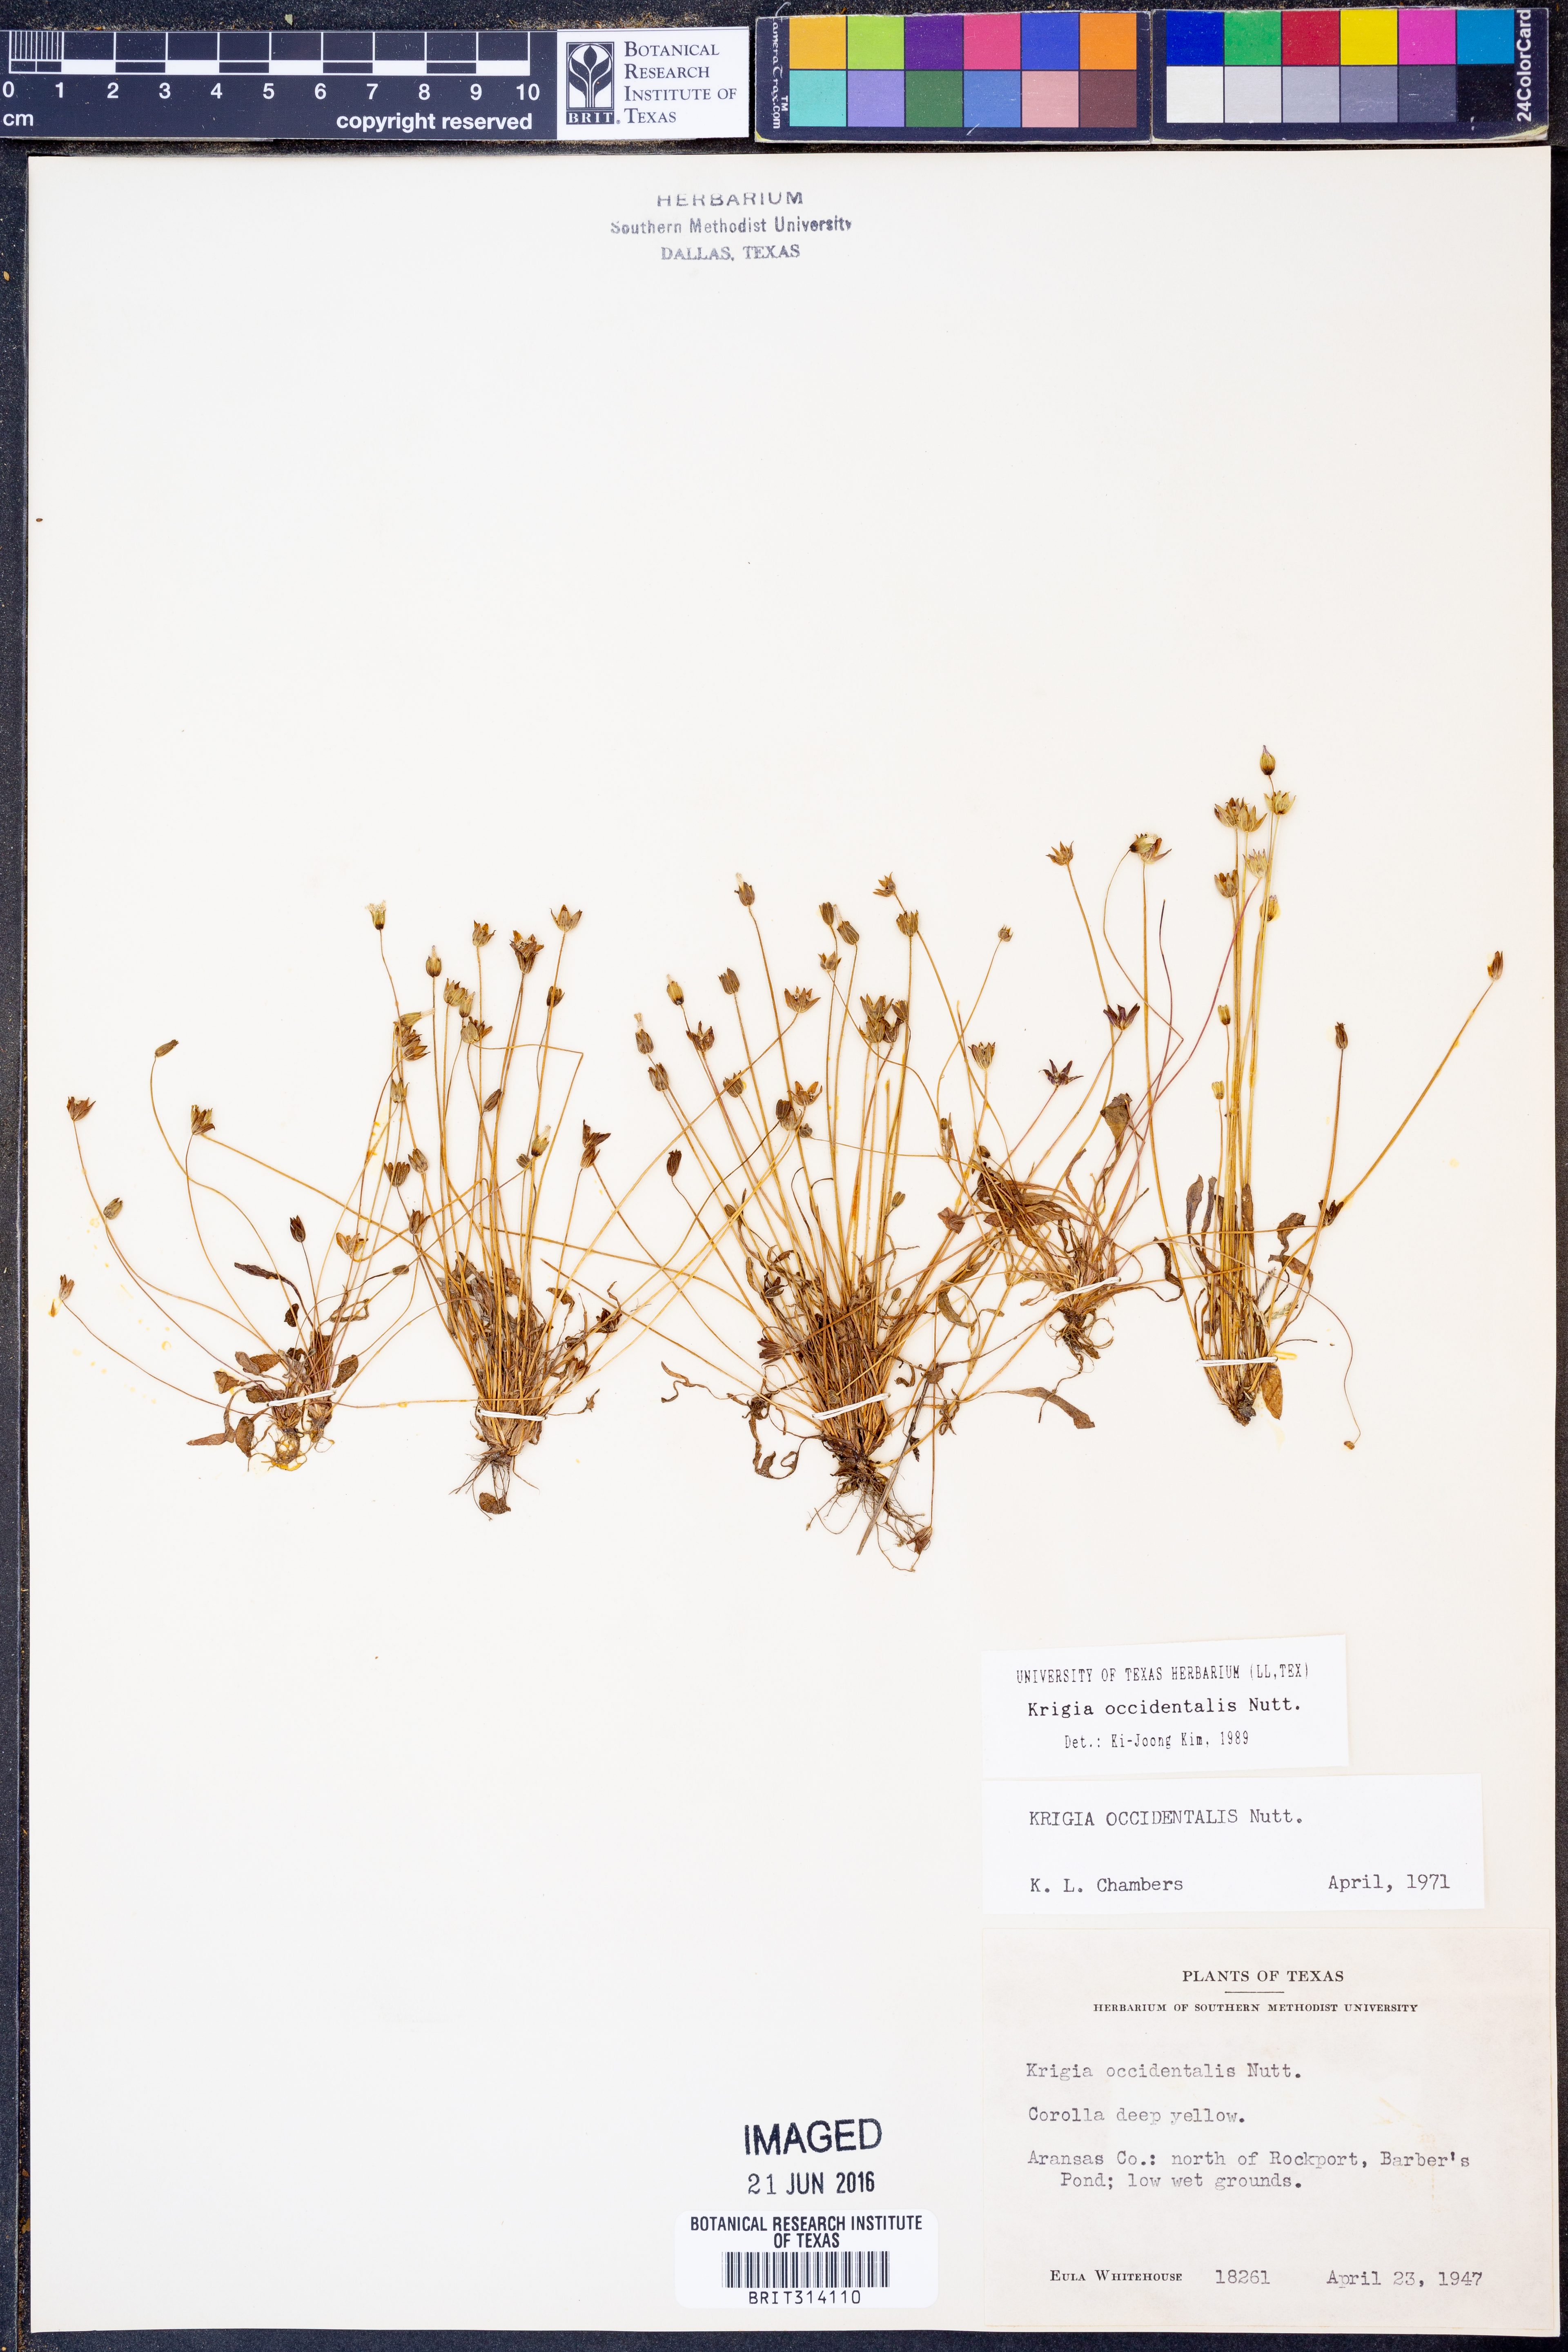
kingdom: Plantae
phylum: Tracheophyta
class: Magnoliopsida
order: Asterales
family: Asteraceae
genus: Krigia
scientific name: Krigia occidentalis
